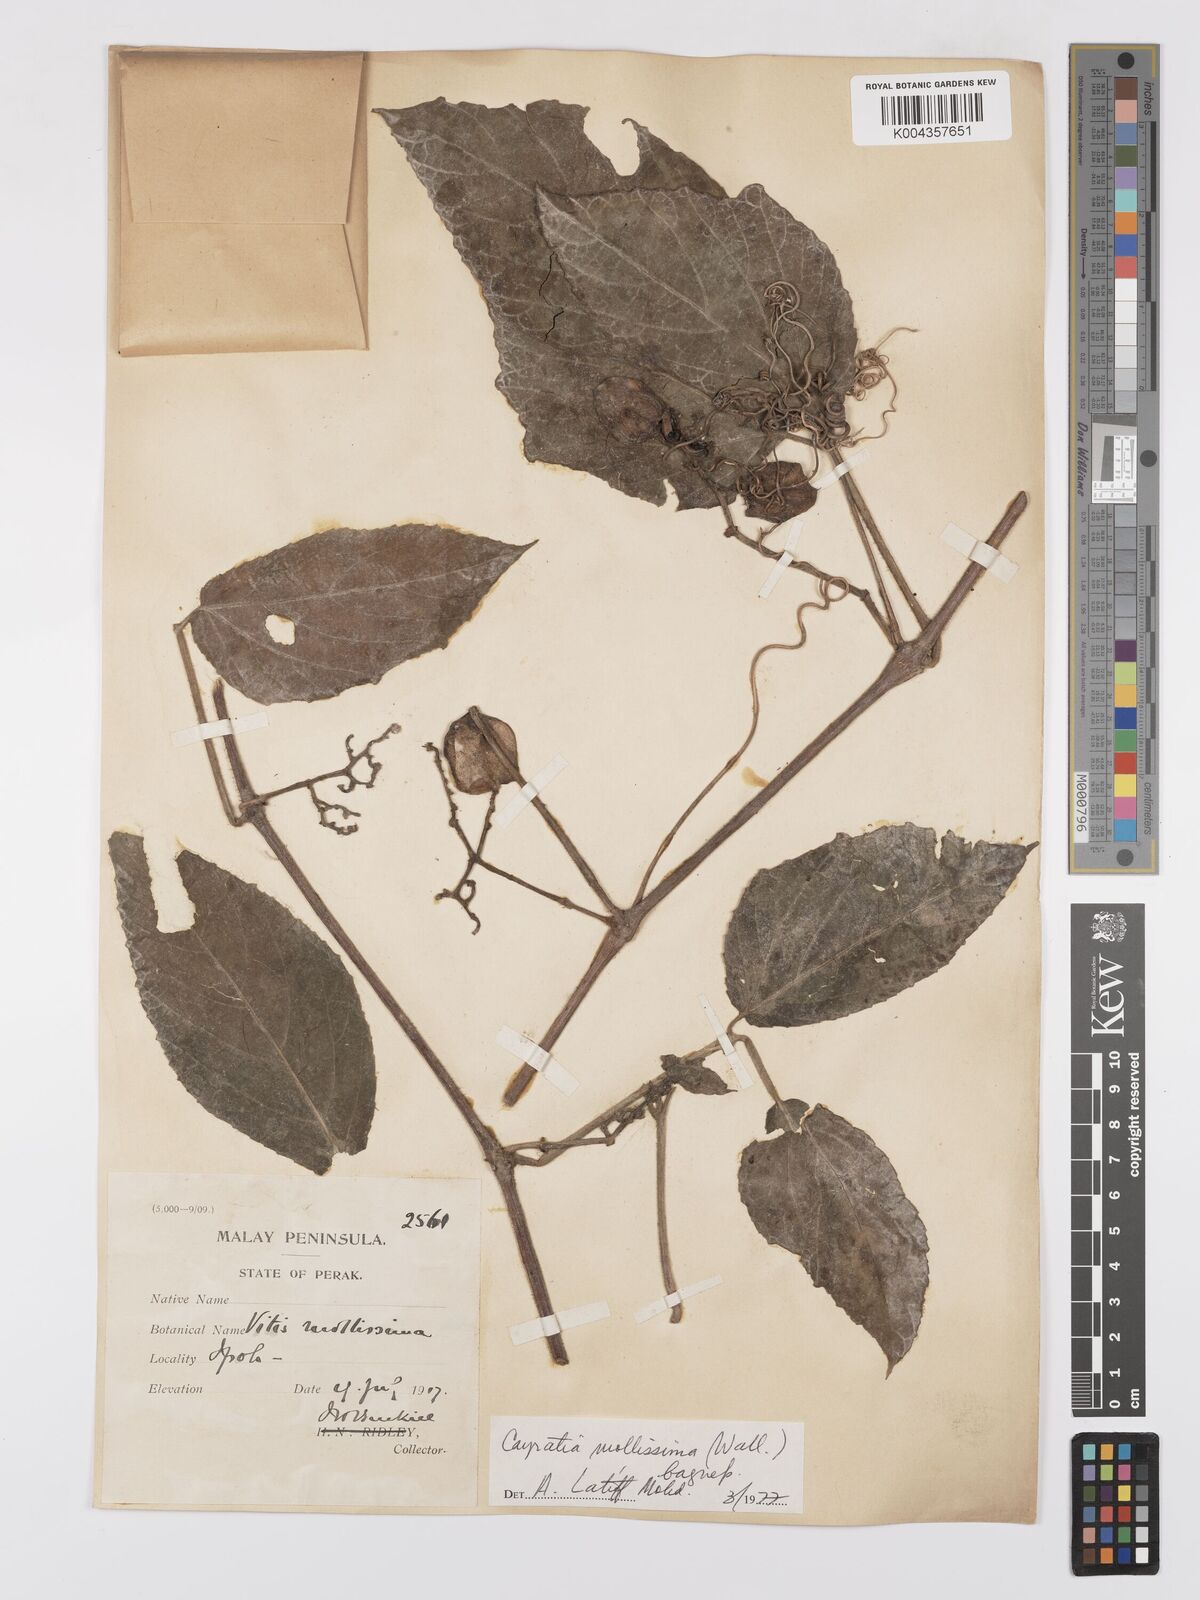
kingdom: Plantae
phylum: Tracheophyta
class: Magnoliopsida
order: Vitales
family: Vitaceae
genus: Cayratia
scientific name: Cayratia mollissima
